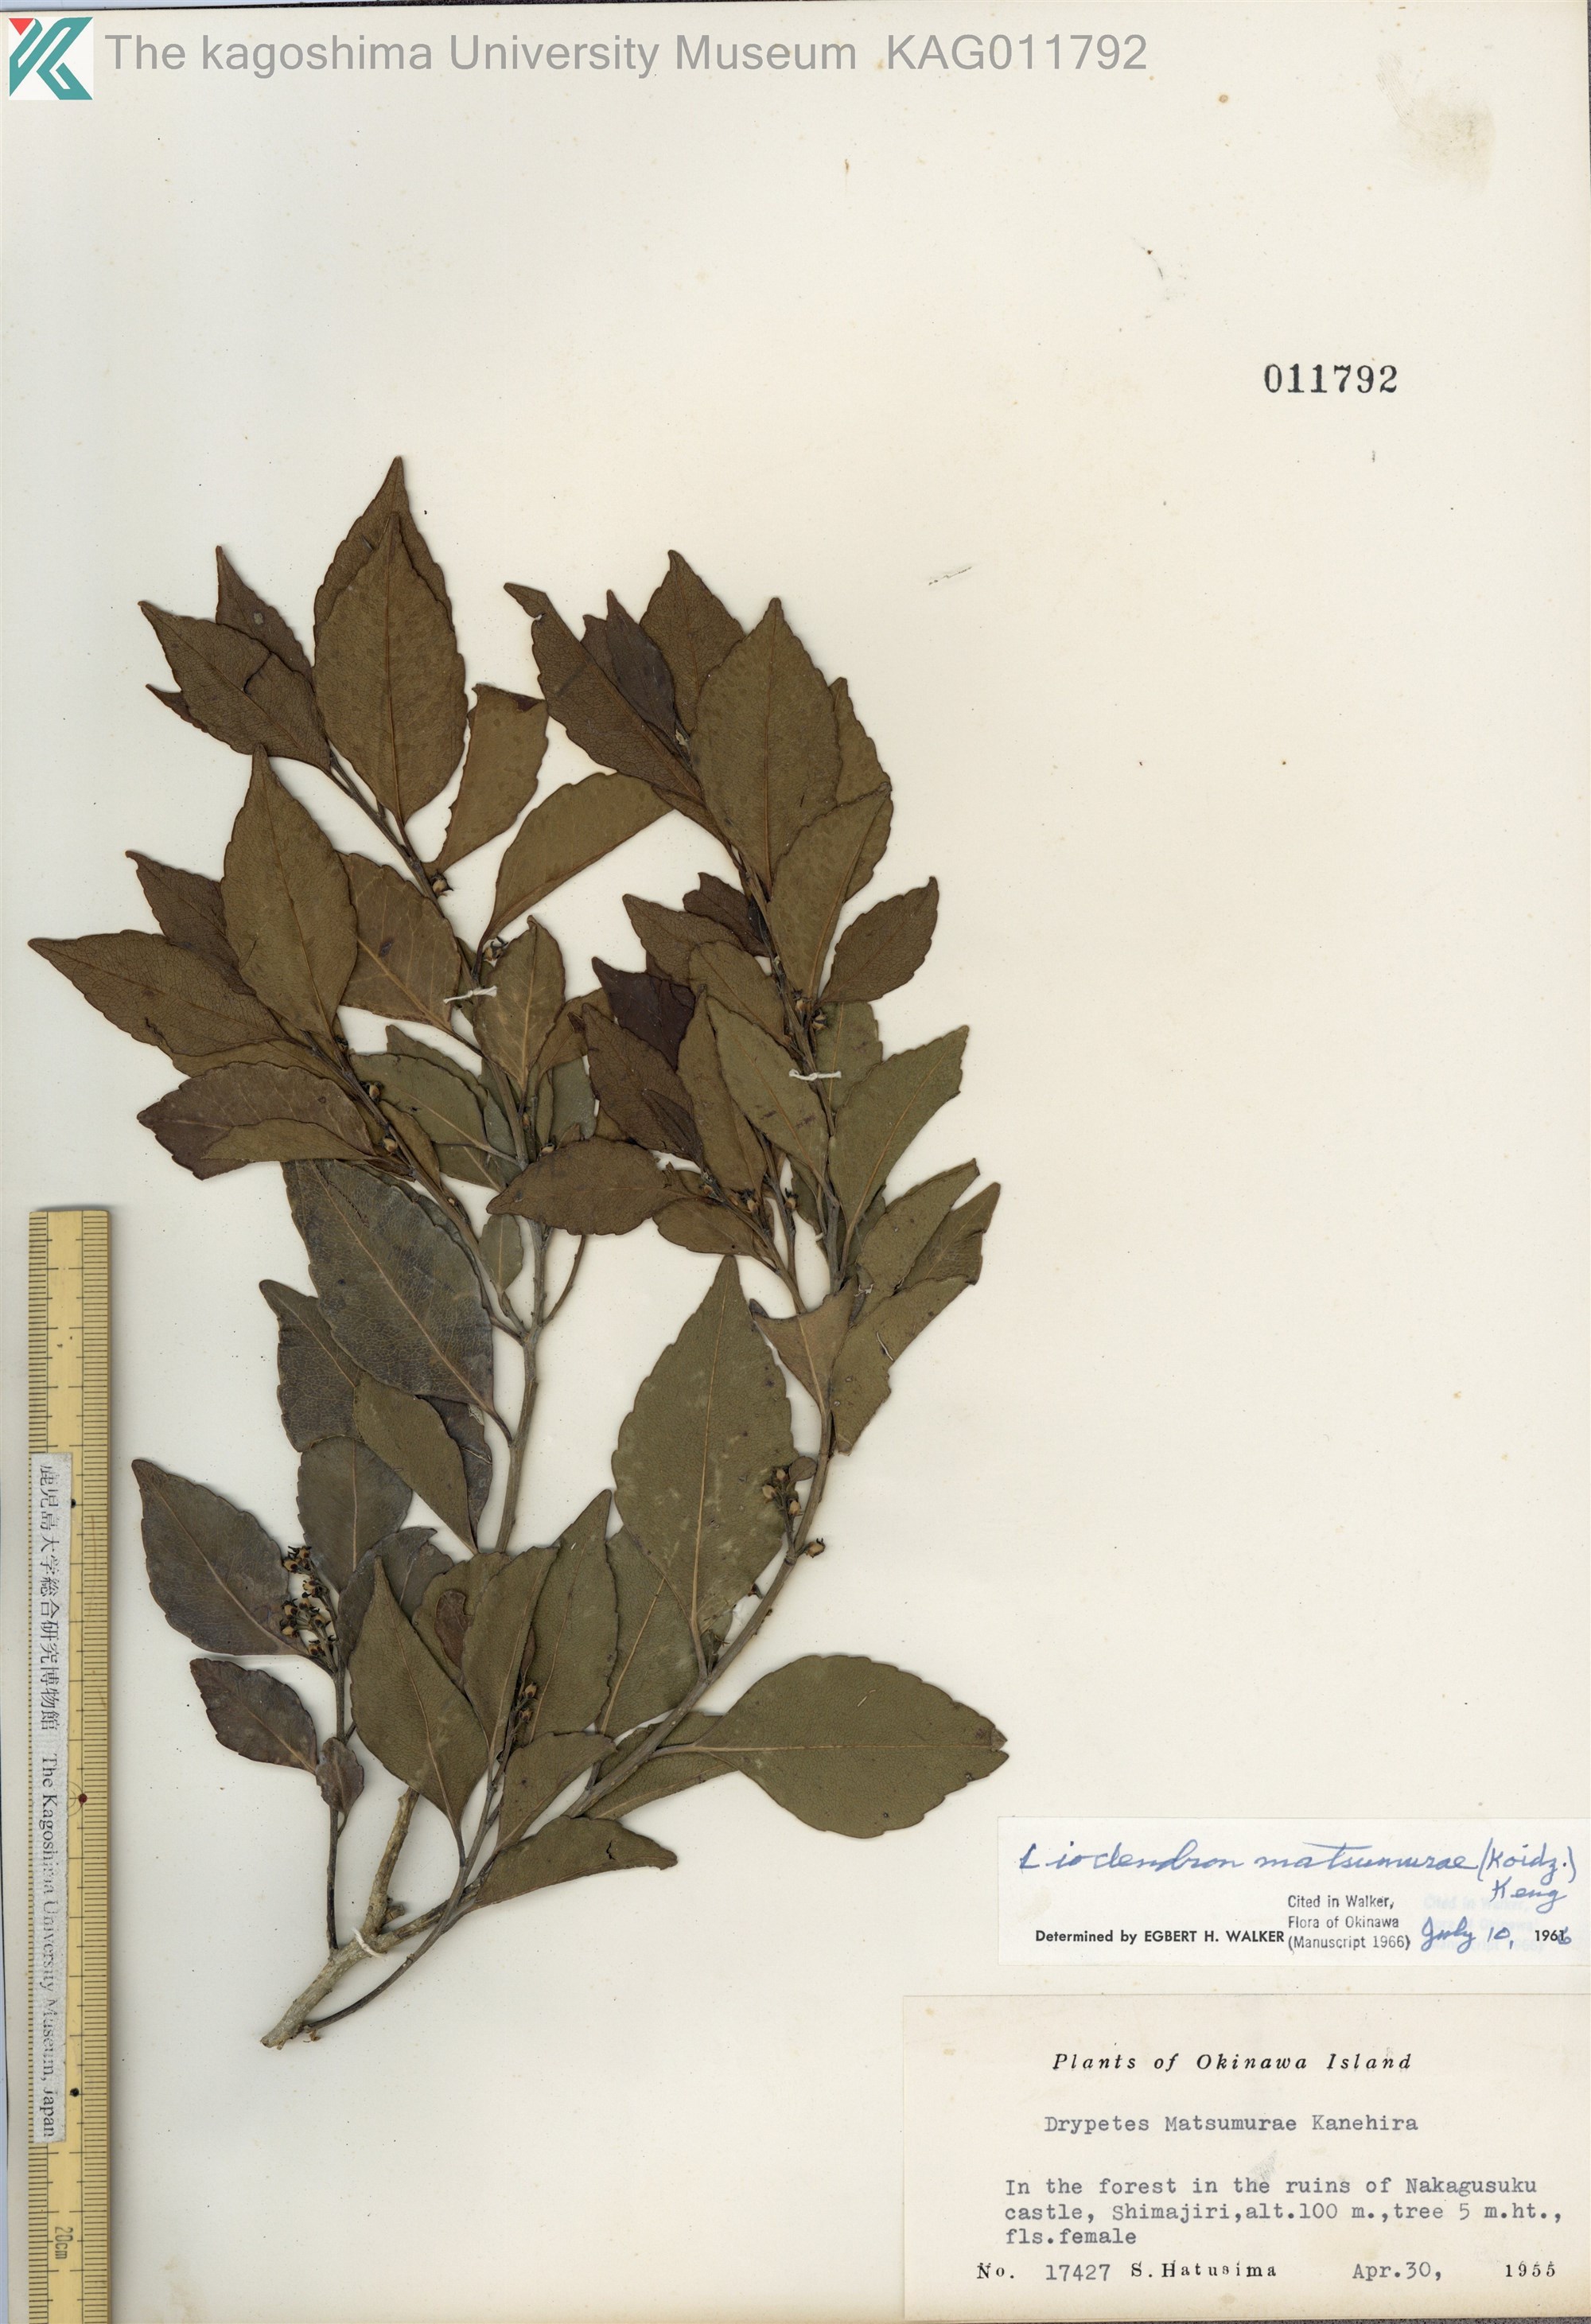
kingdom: Plantae
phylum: Tracheophyta
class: Magnoliopsida
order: Malpighiales
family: Putranjivaceae
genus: Putranjiva
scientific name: Putranjiva matsumurae
